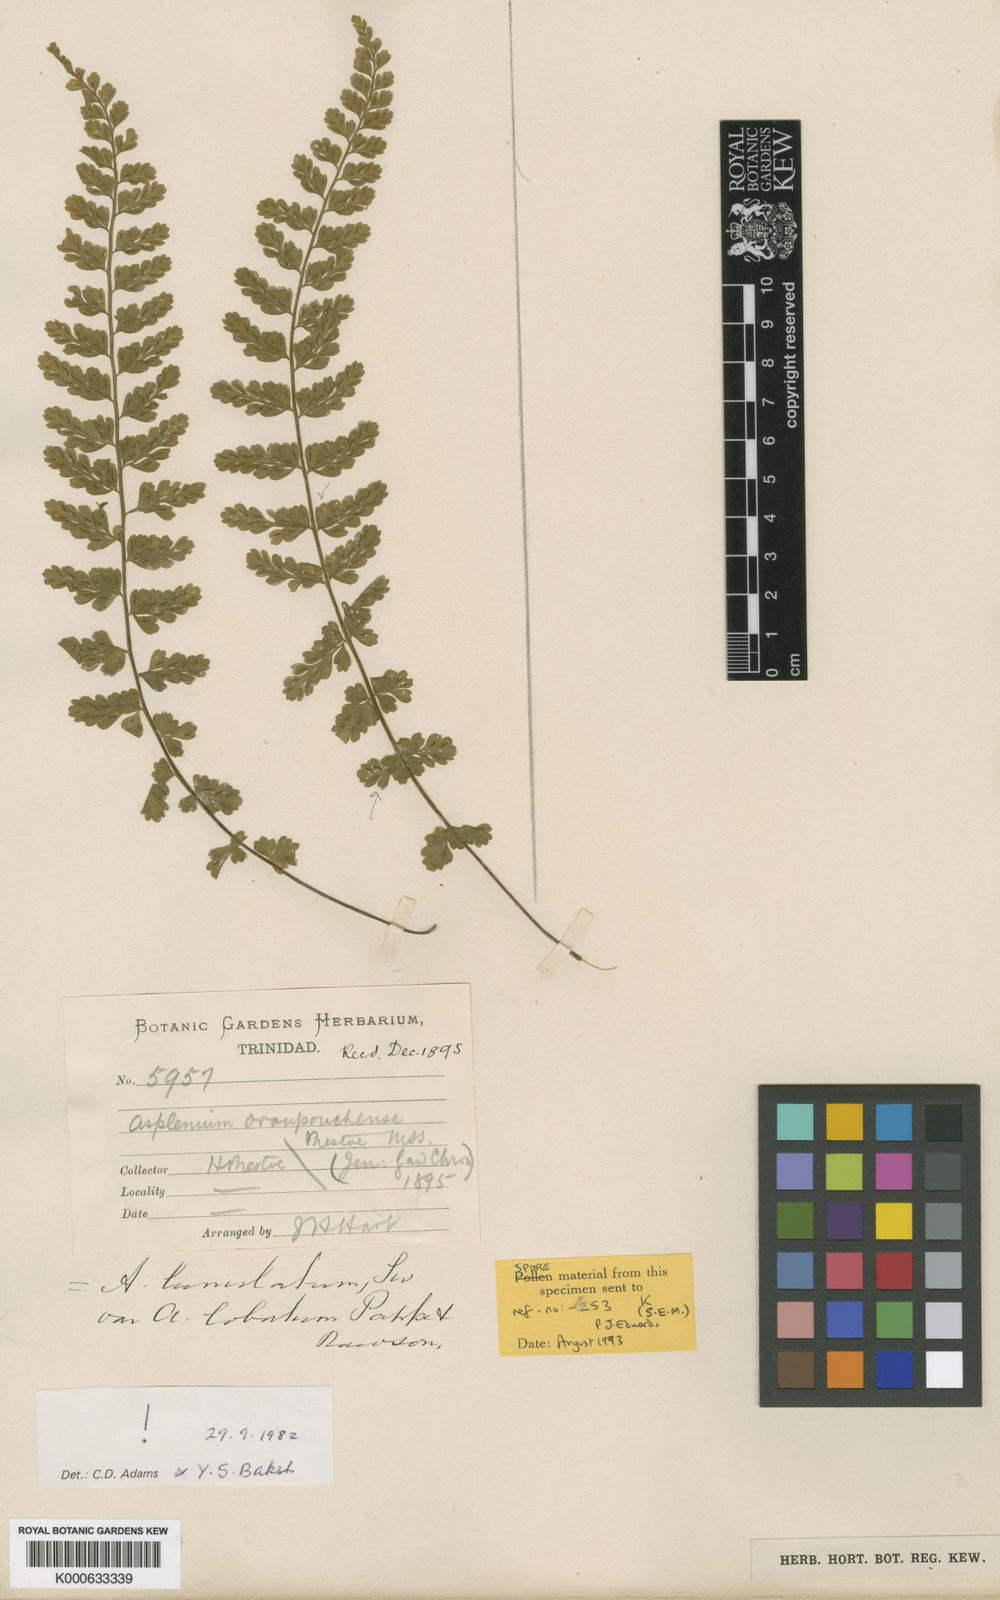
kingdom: Plantae
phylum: Tracheophyta
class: Polypodiopsida
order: Polypodiales
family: Aspleniaceae
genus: Asplenium
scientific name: Asplenium oroupouchense
